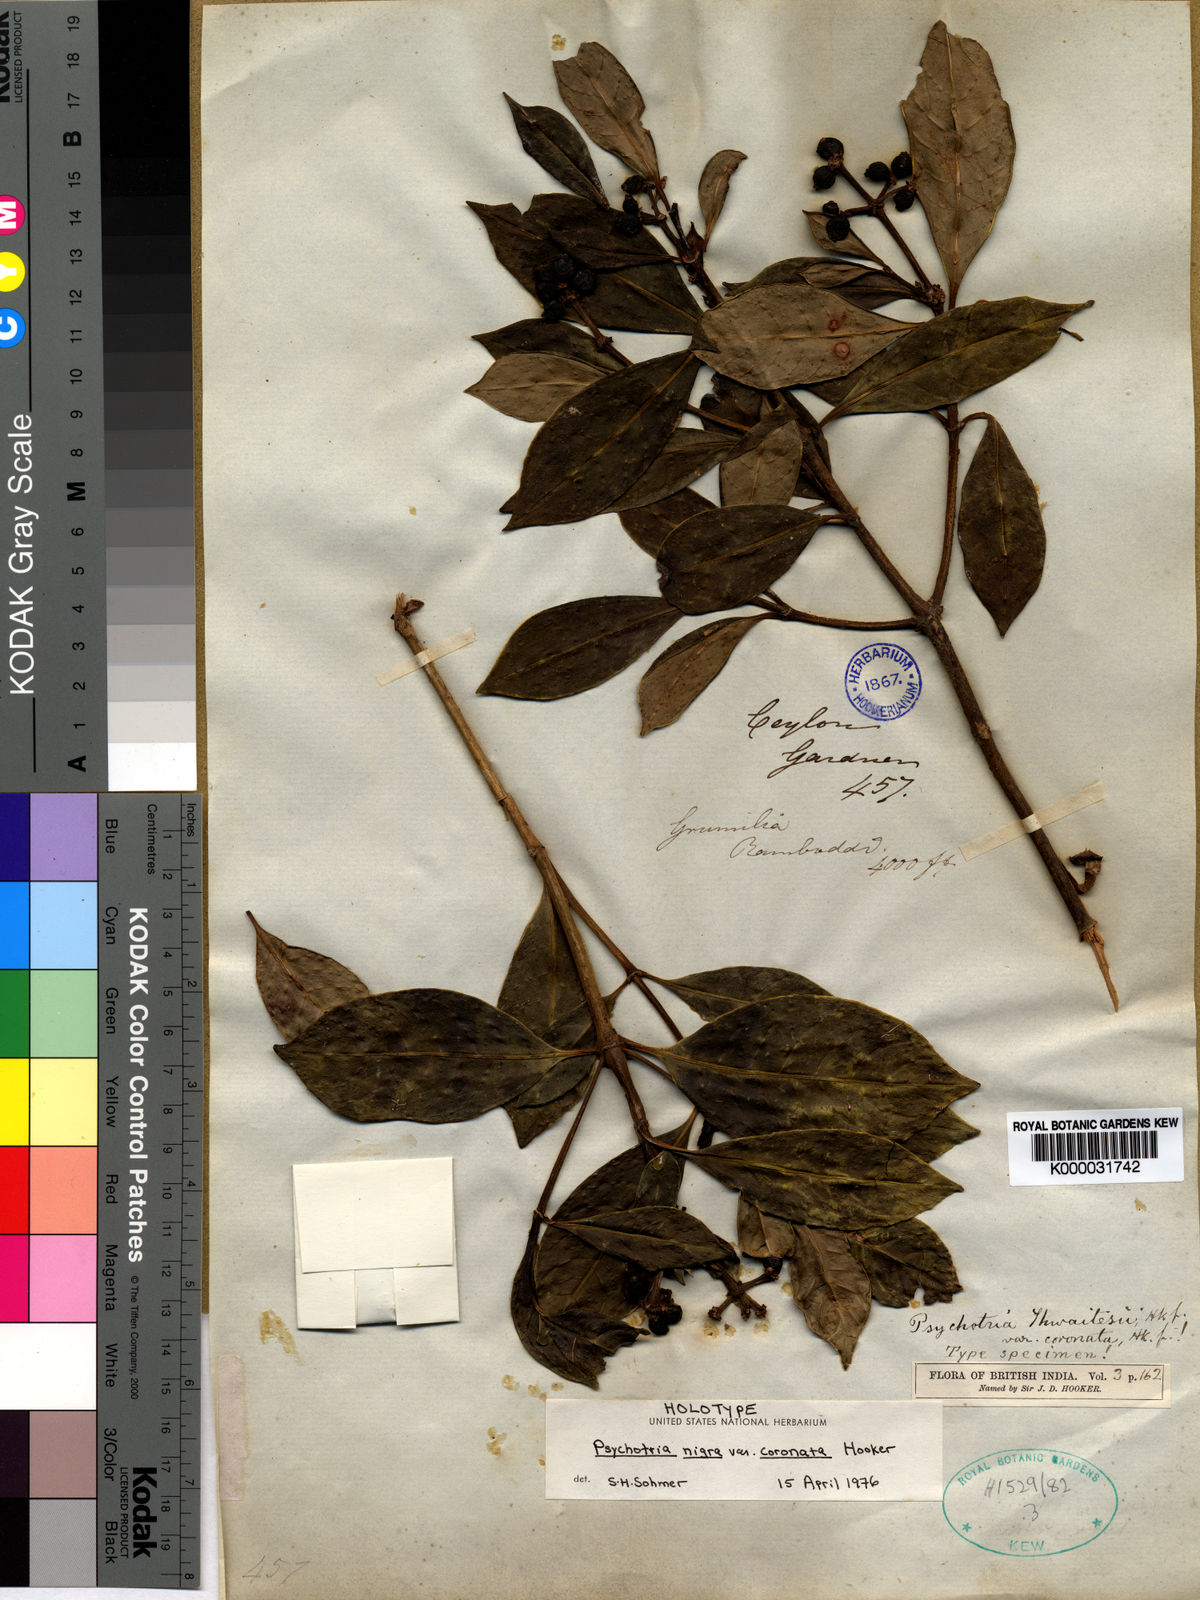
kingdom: Plantae
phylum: Tracheophyta
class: Magnoliopsida
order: Gentianales
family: Rubiaceae
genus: Psychotria
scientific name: Psychotria nigra
